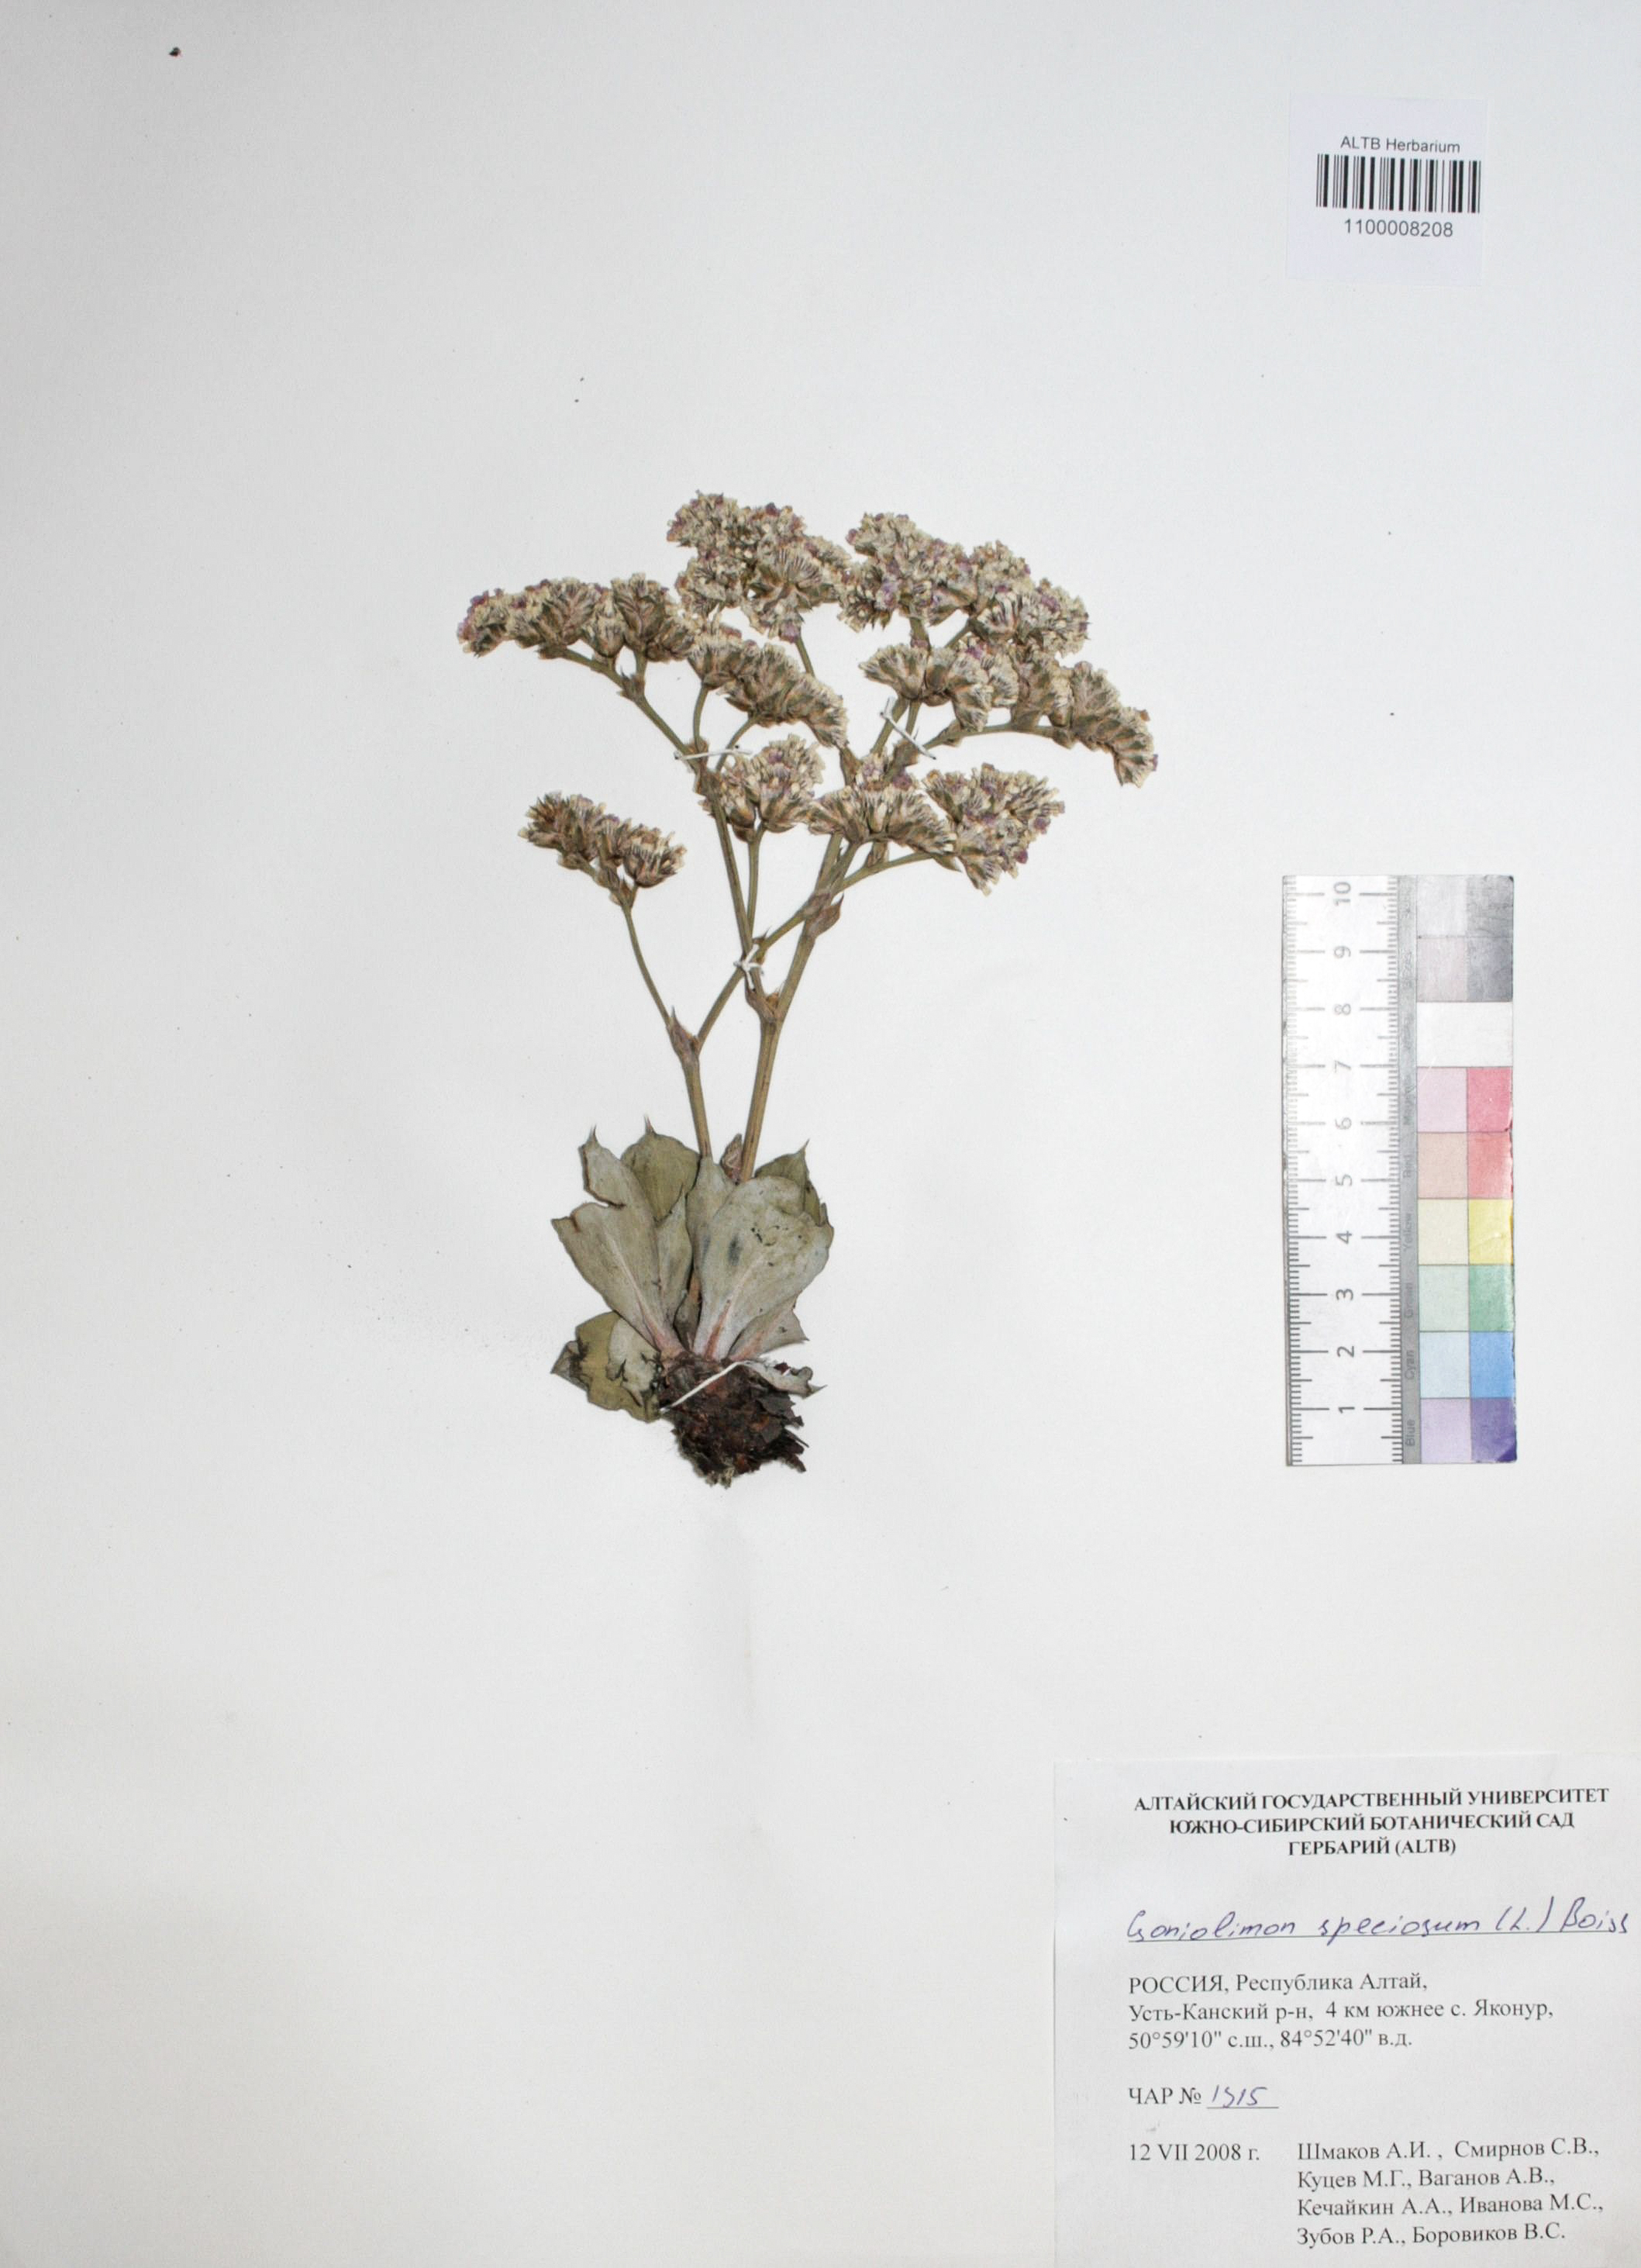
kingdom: Plantae
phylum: Tracheophyta
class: Magnoliopsida
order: Caryophyllales
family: Plumbaginaceae
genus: Goniolimon
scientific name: Goniolimon speciosum
